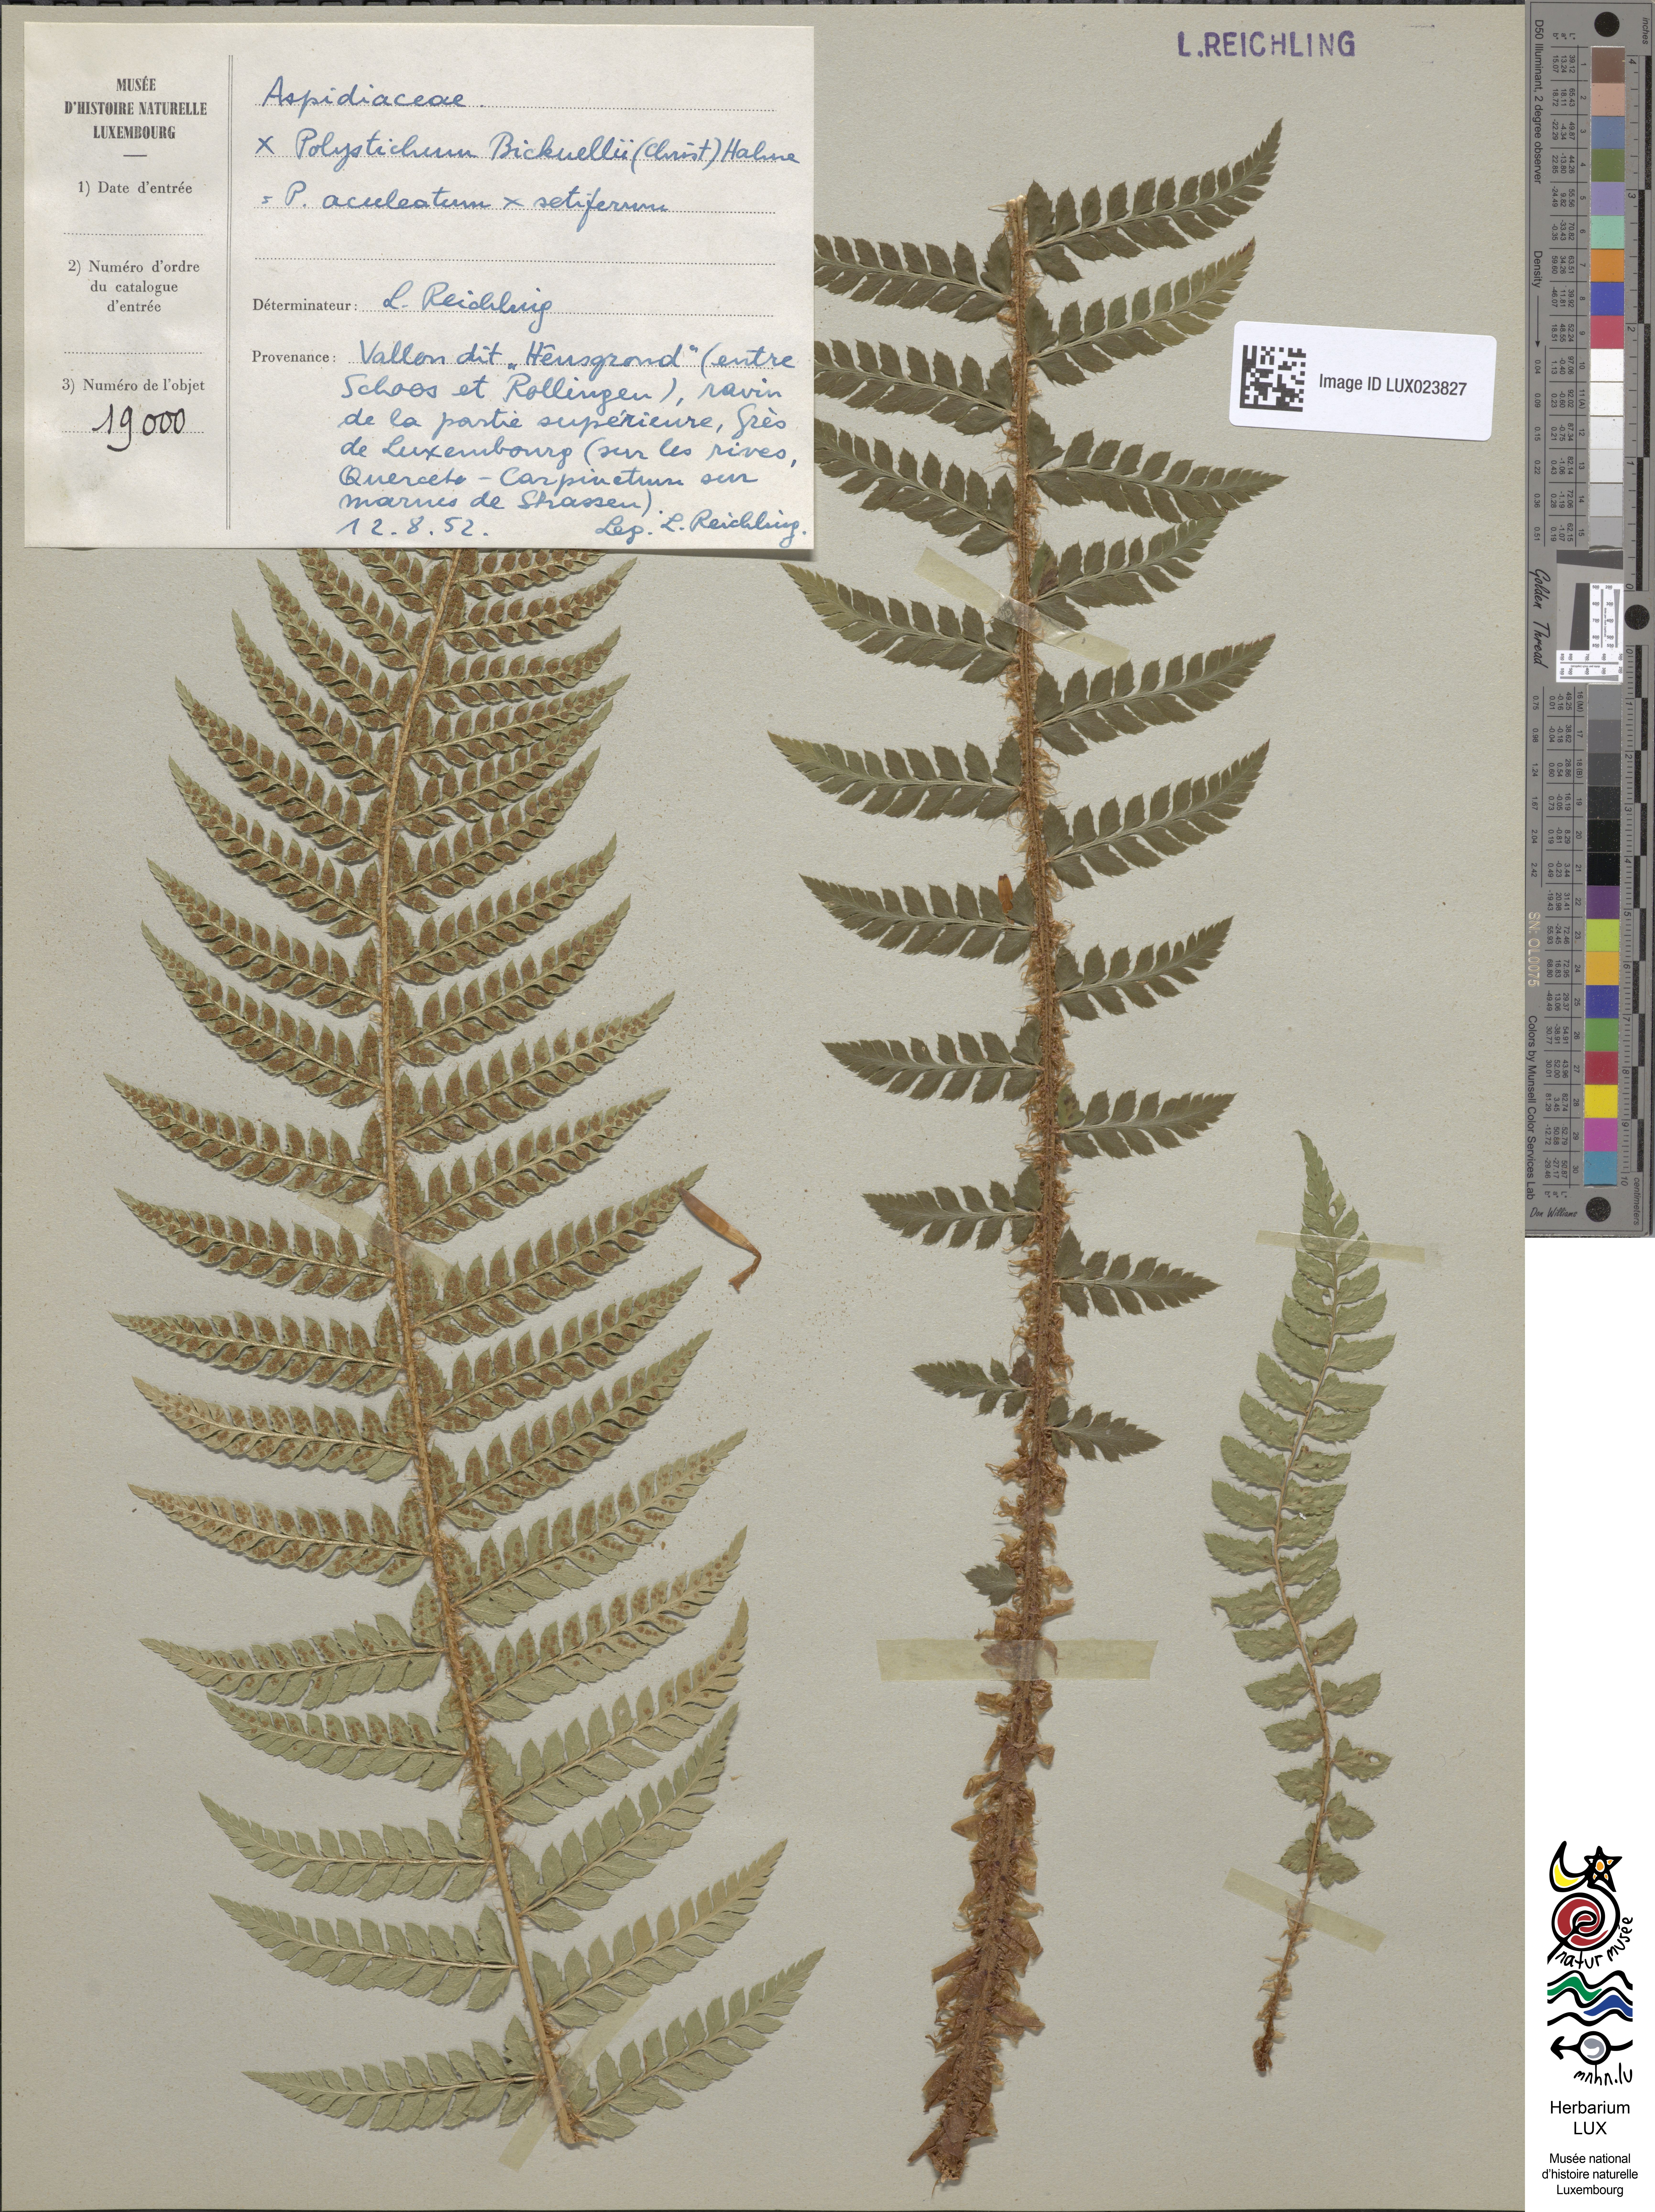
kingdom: Plantae
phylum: Tracheophyta
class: Polypodiopsida
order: Polypodiales
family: Dryopteridaceae
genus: Polystichum
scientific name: Polystichum
